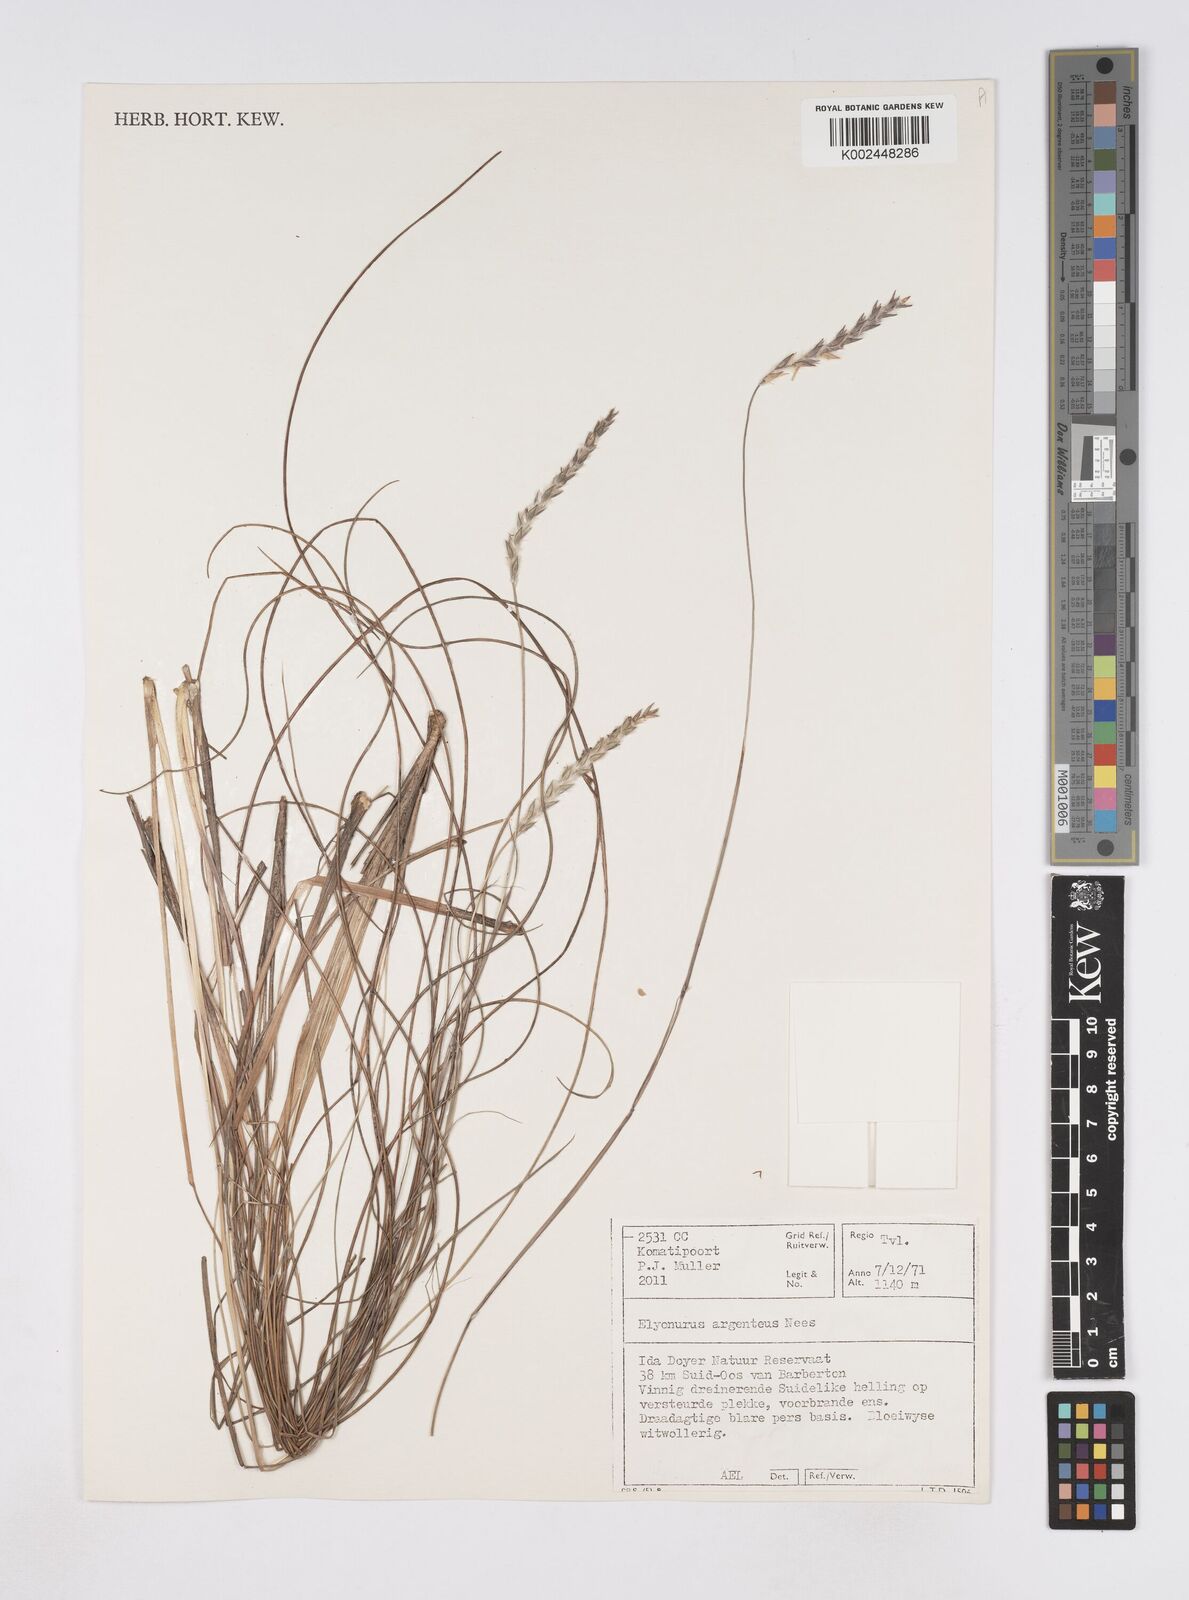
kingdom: Plantae
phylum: Tracheophyta
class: Liliopsida
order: Poales
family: Poaceae
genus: Elionurus
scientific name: Elionurus muticus
